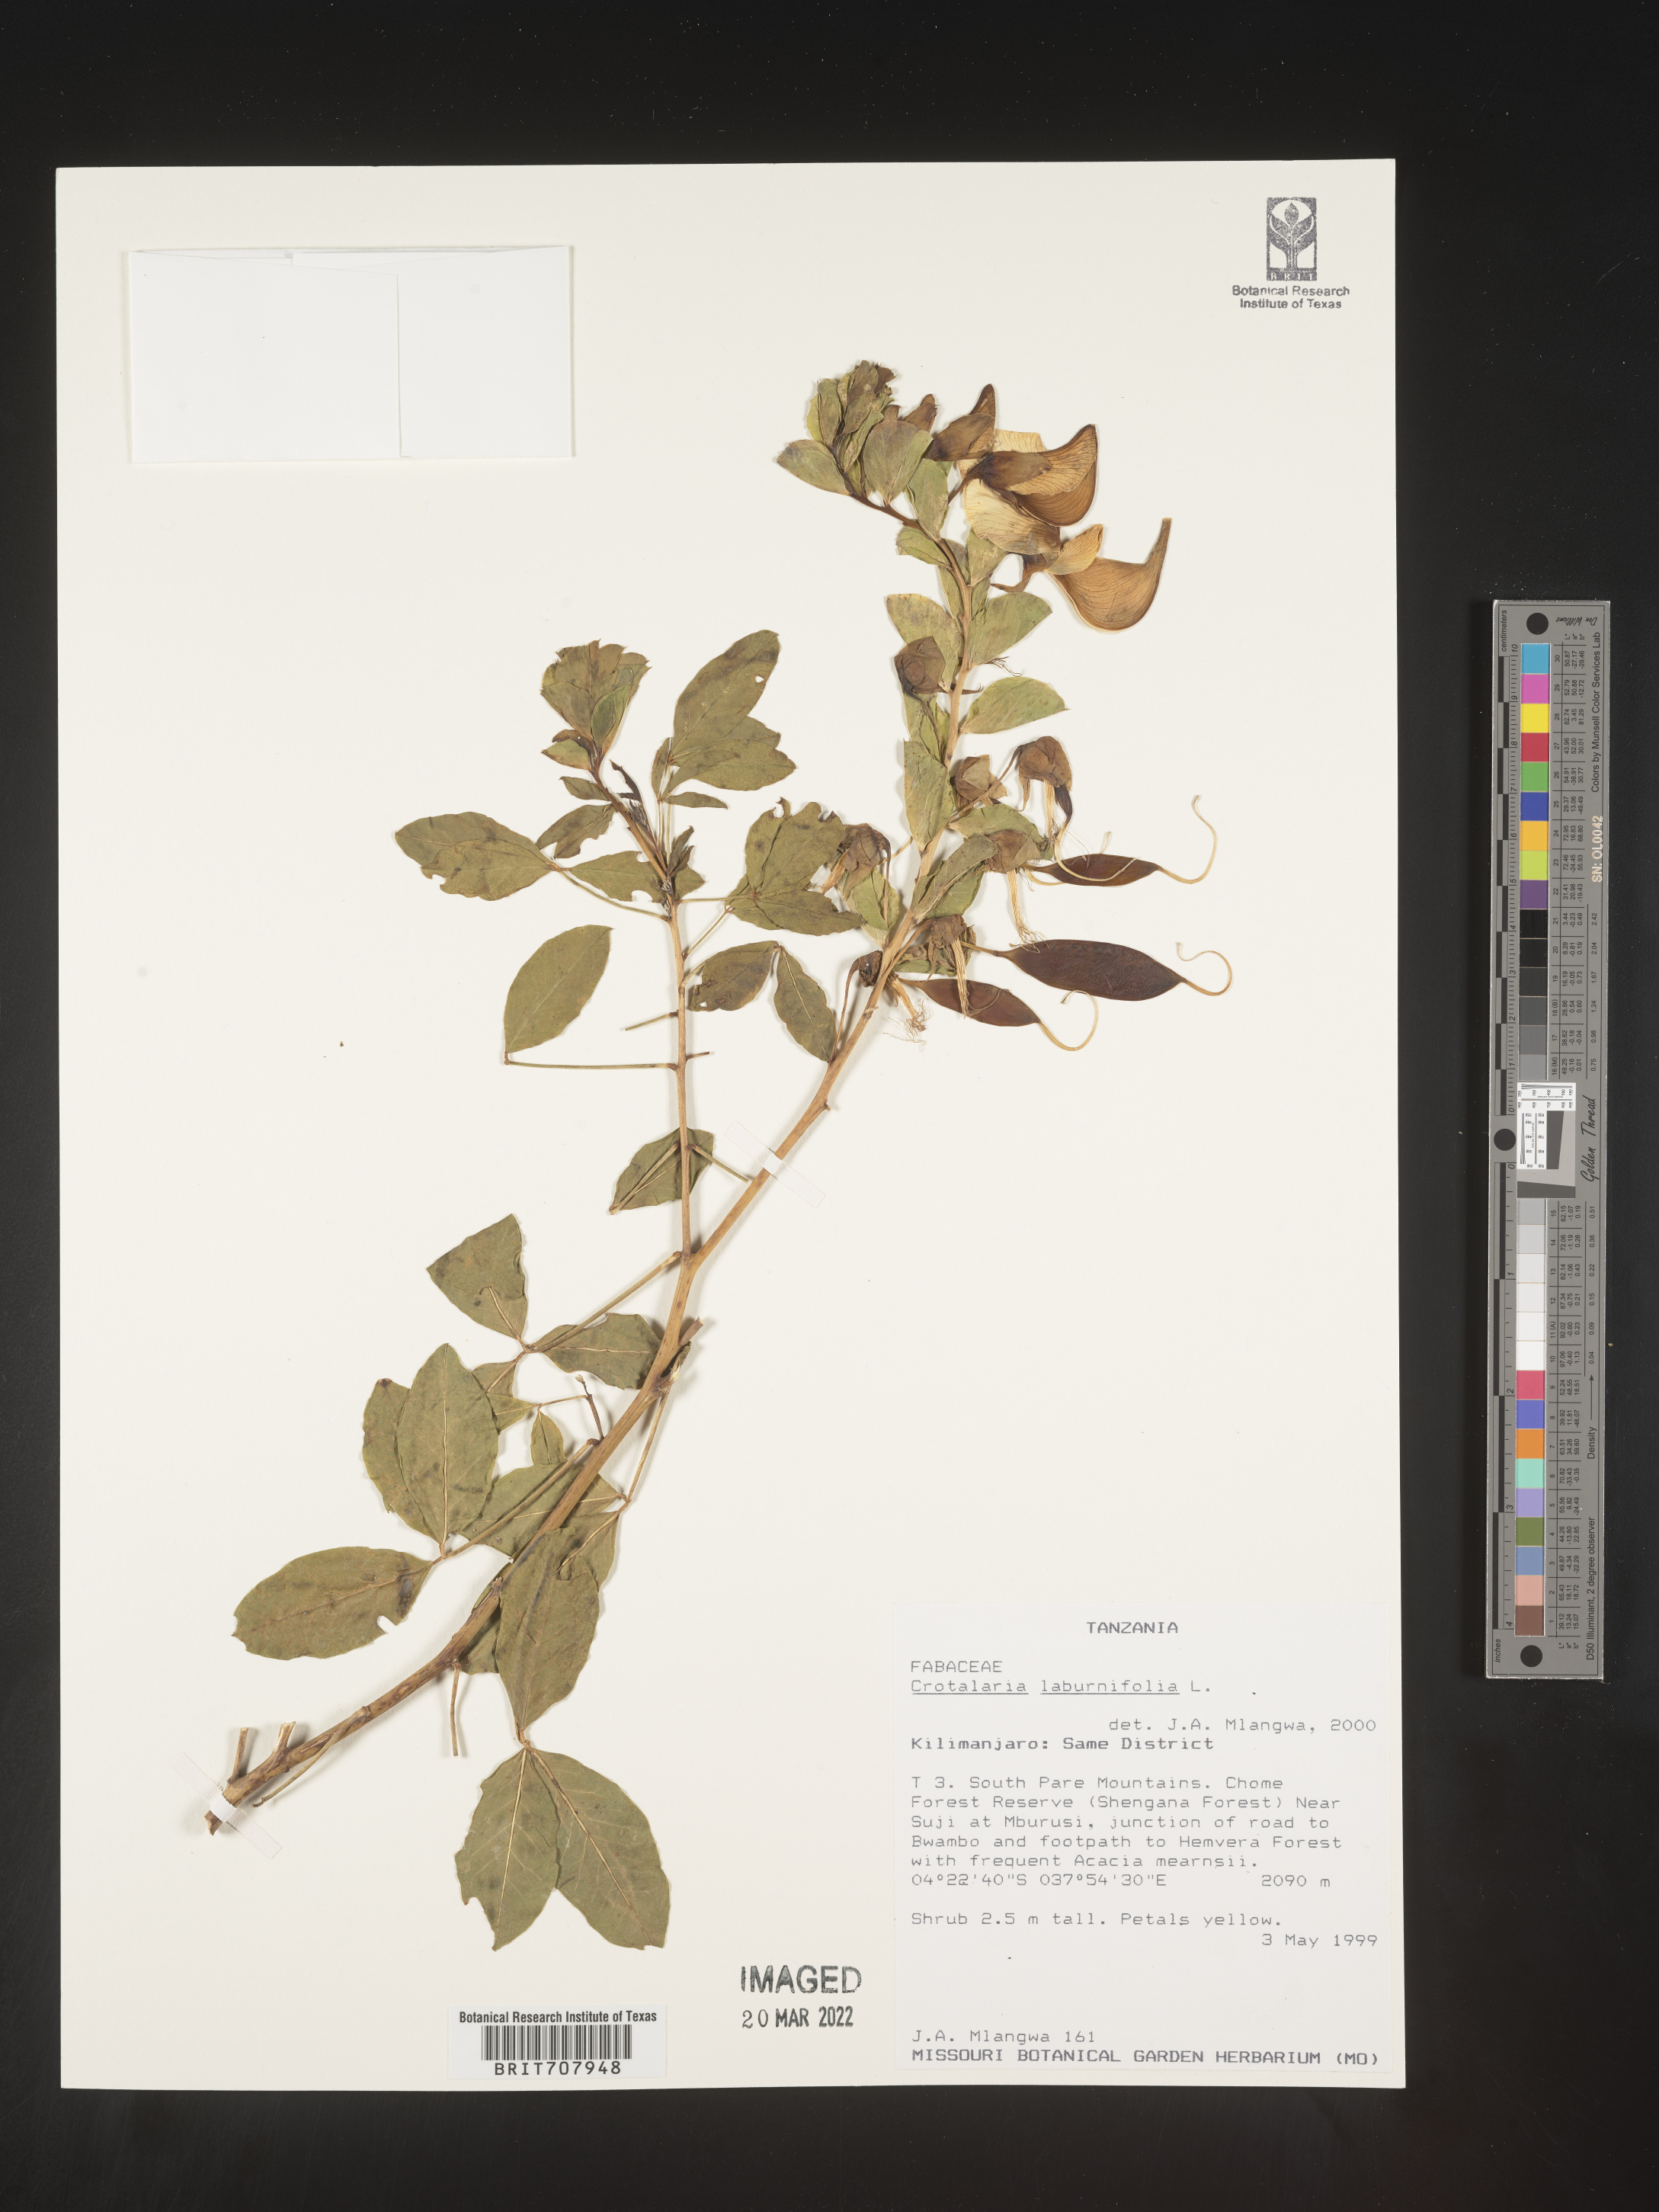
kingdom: Plantae
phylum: Tracheophyta
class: Magnoliopsida
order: Fabales
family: Fabaceae
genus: Crotalaria
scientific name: Crotalaria
